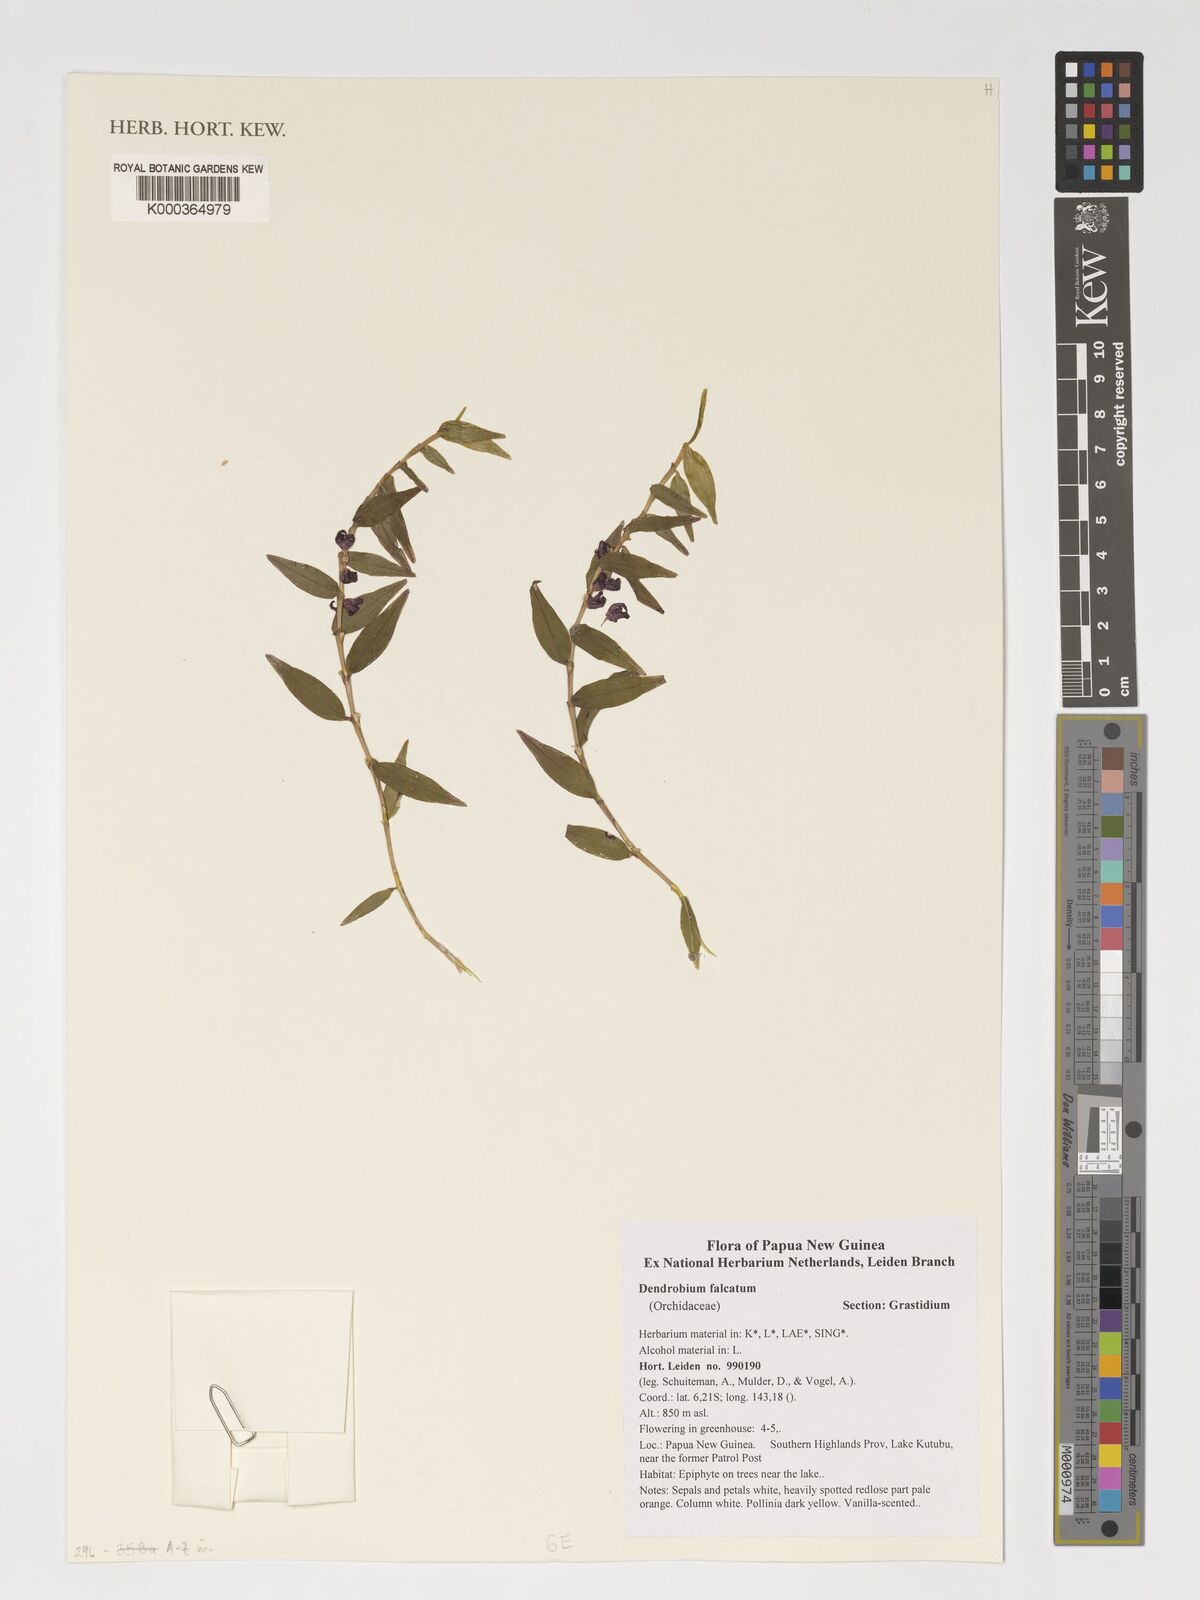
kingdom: Plantae
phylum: Tracheophyta
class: Liliopsida
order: Asparagales
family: Orchidaceae
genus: Dendrobium
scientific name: Dendrobium falcatum
